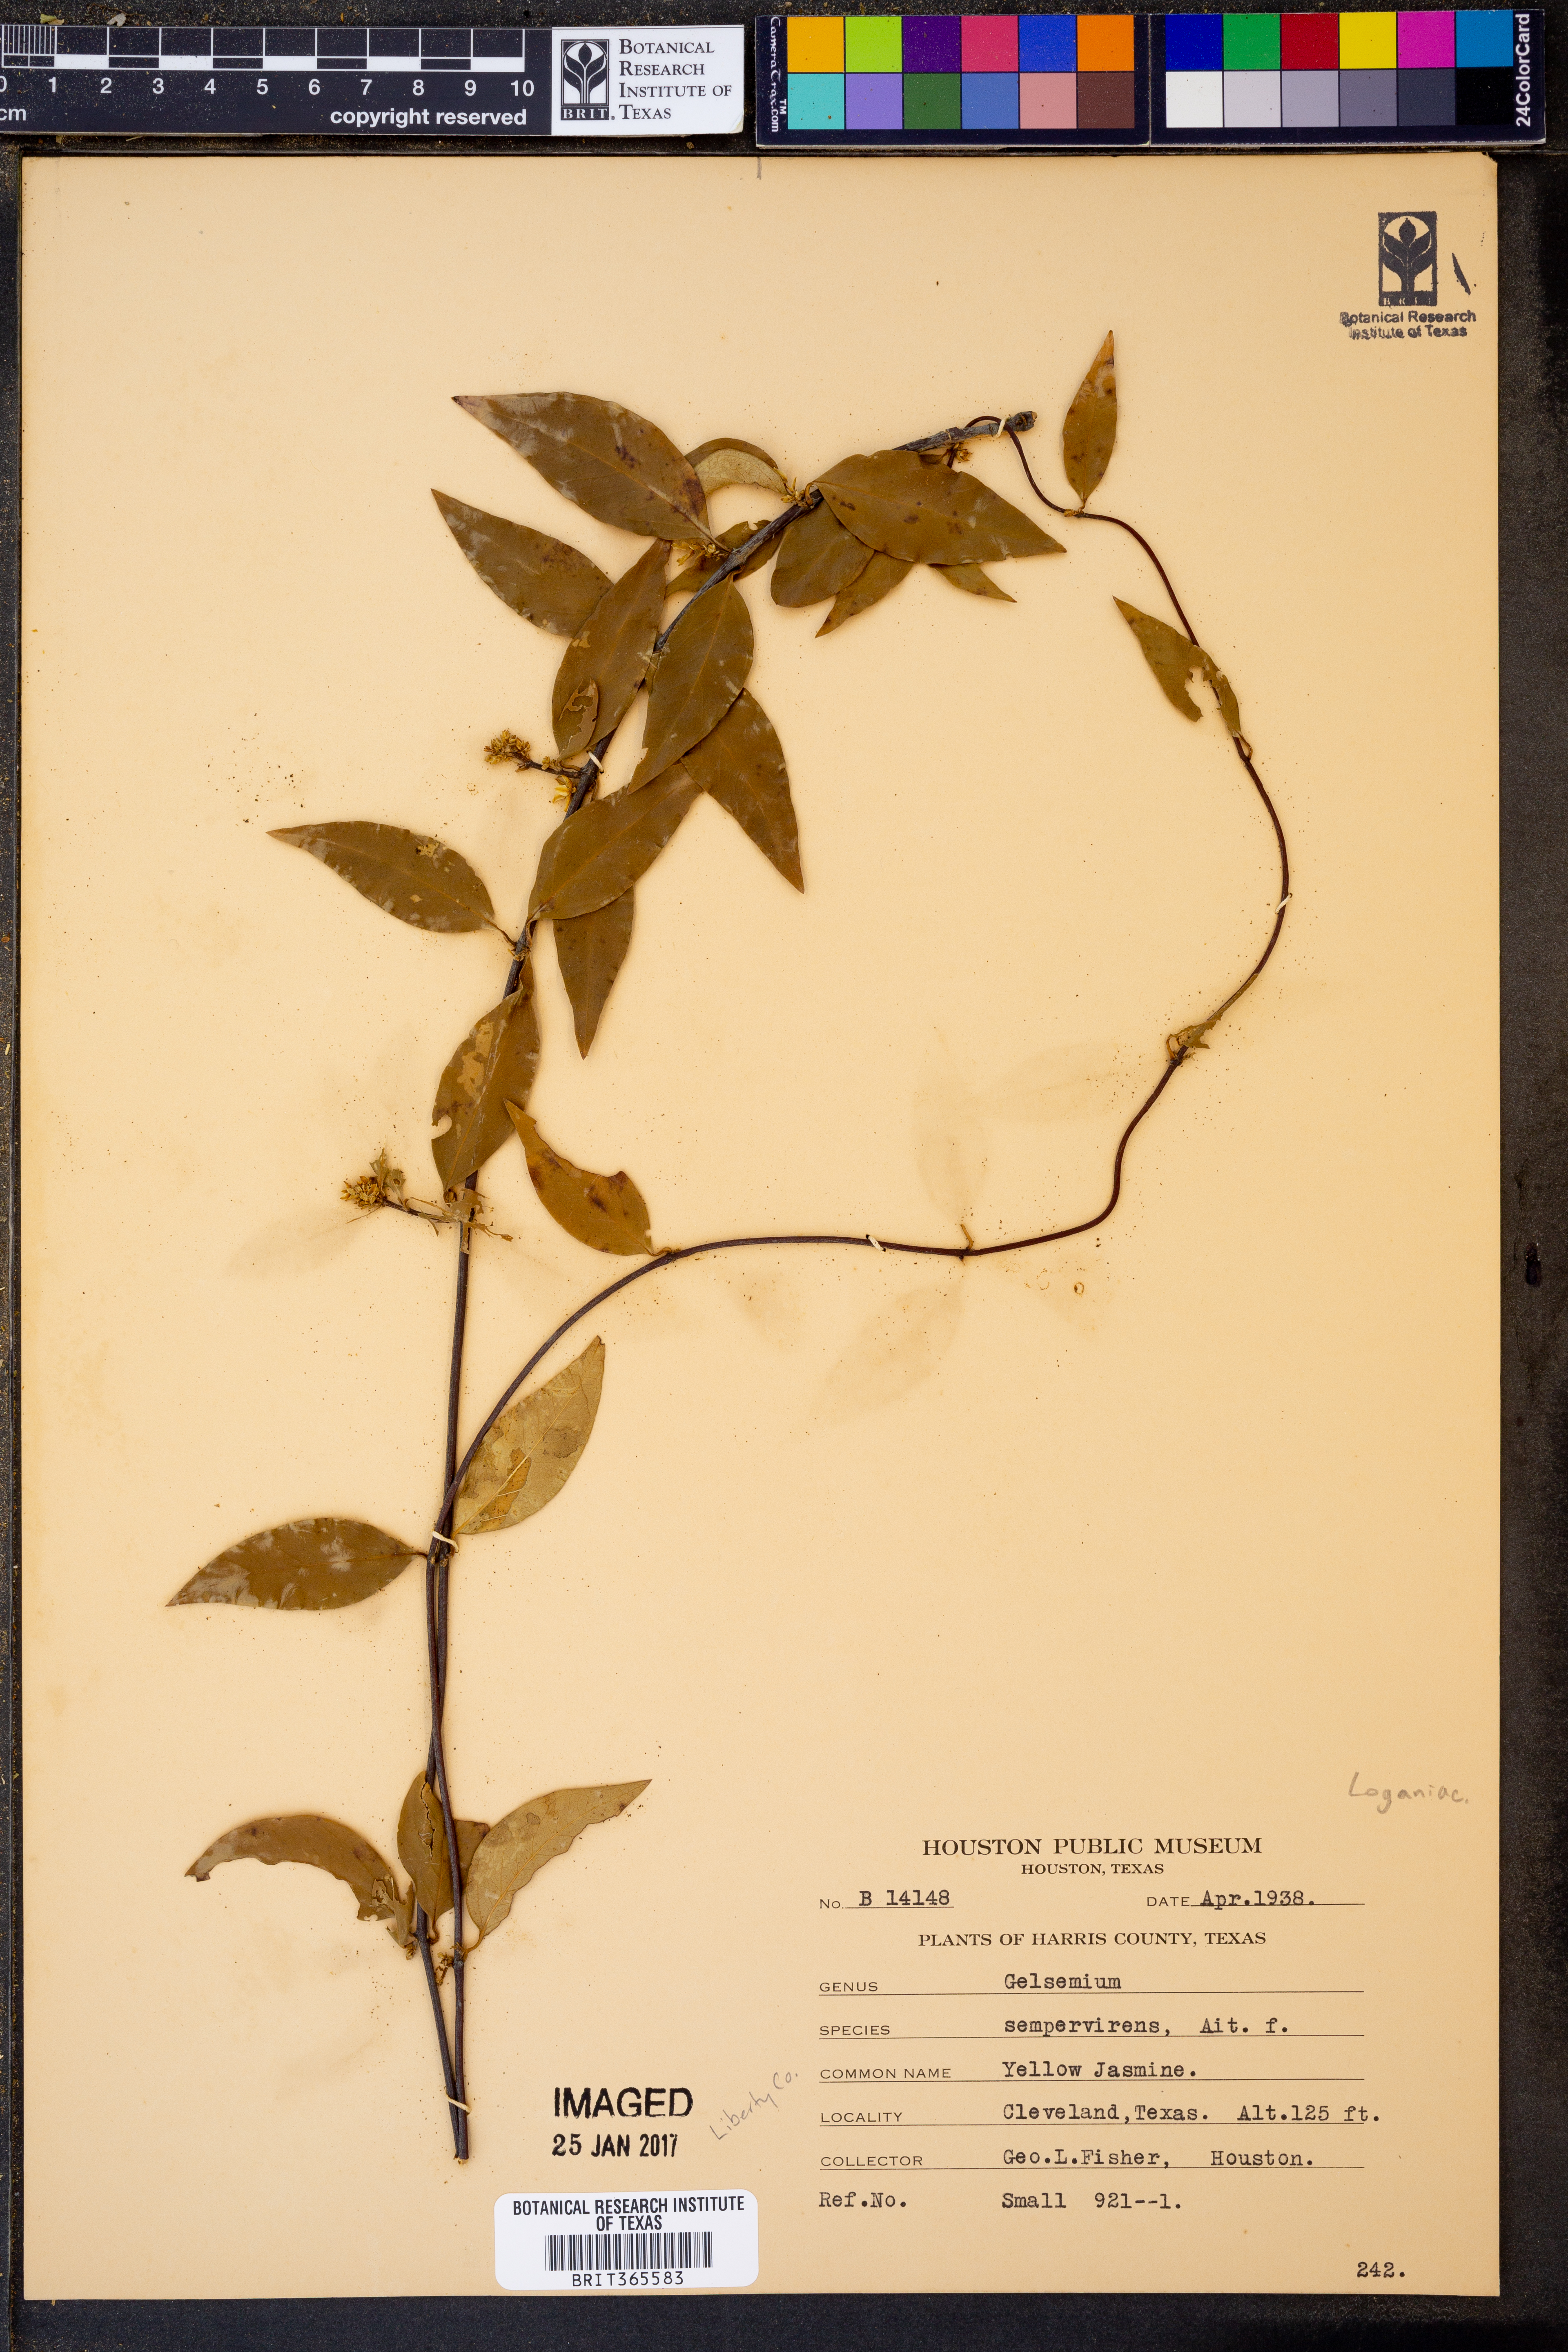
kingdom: Plantae
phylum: Tracheophyta
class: Magnoliopsida
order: Gentianales
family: Gelsemiaceae
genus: Gelsemium
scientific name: Gelsemium sempervirens
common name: Carolina-jasmine
